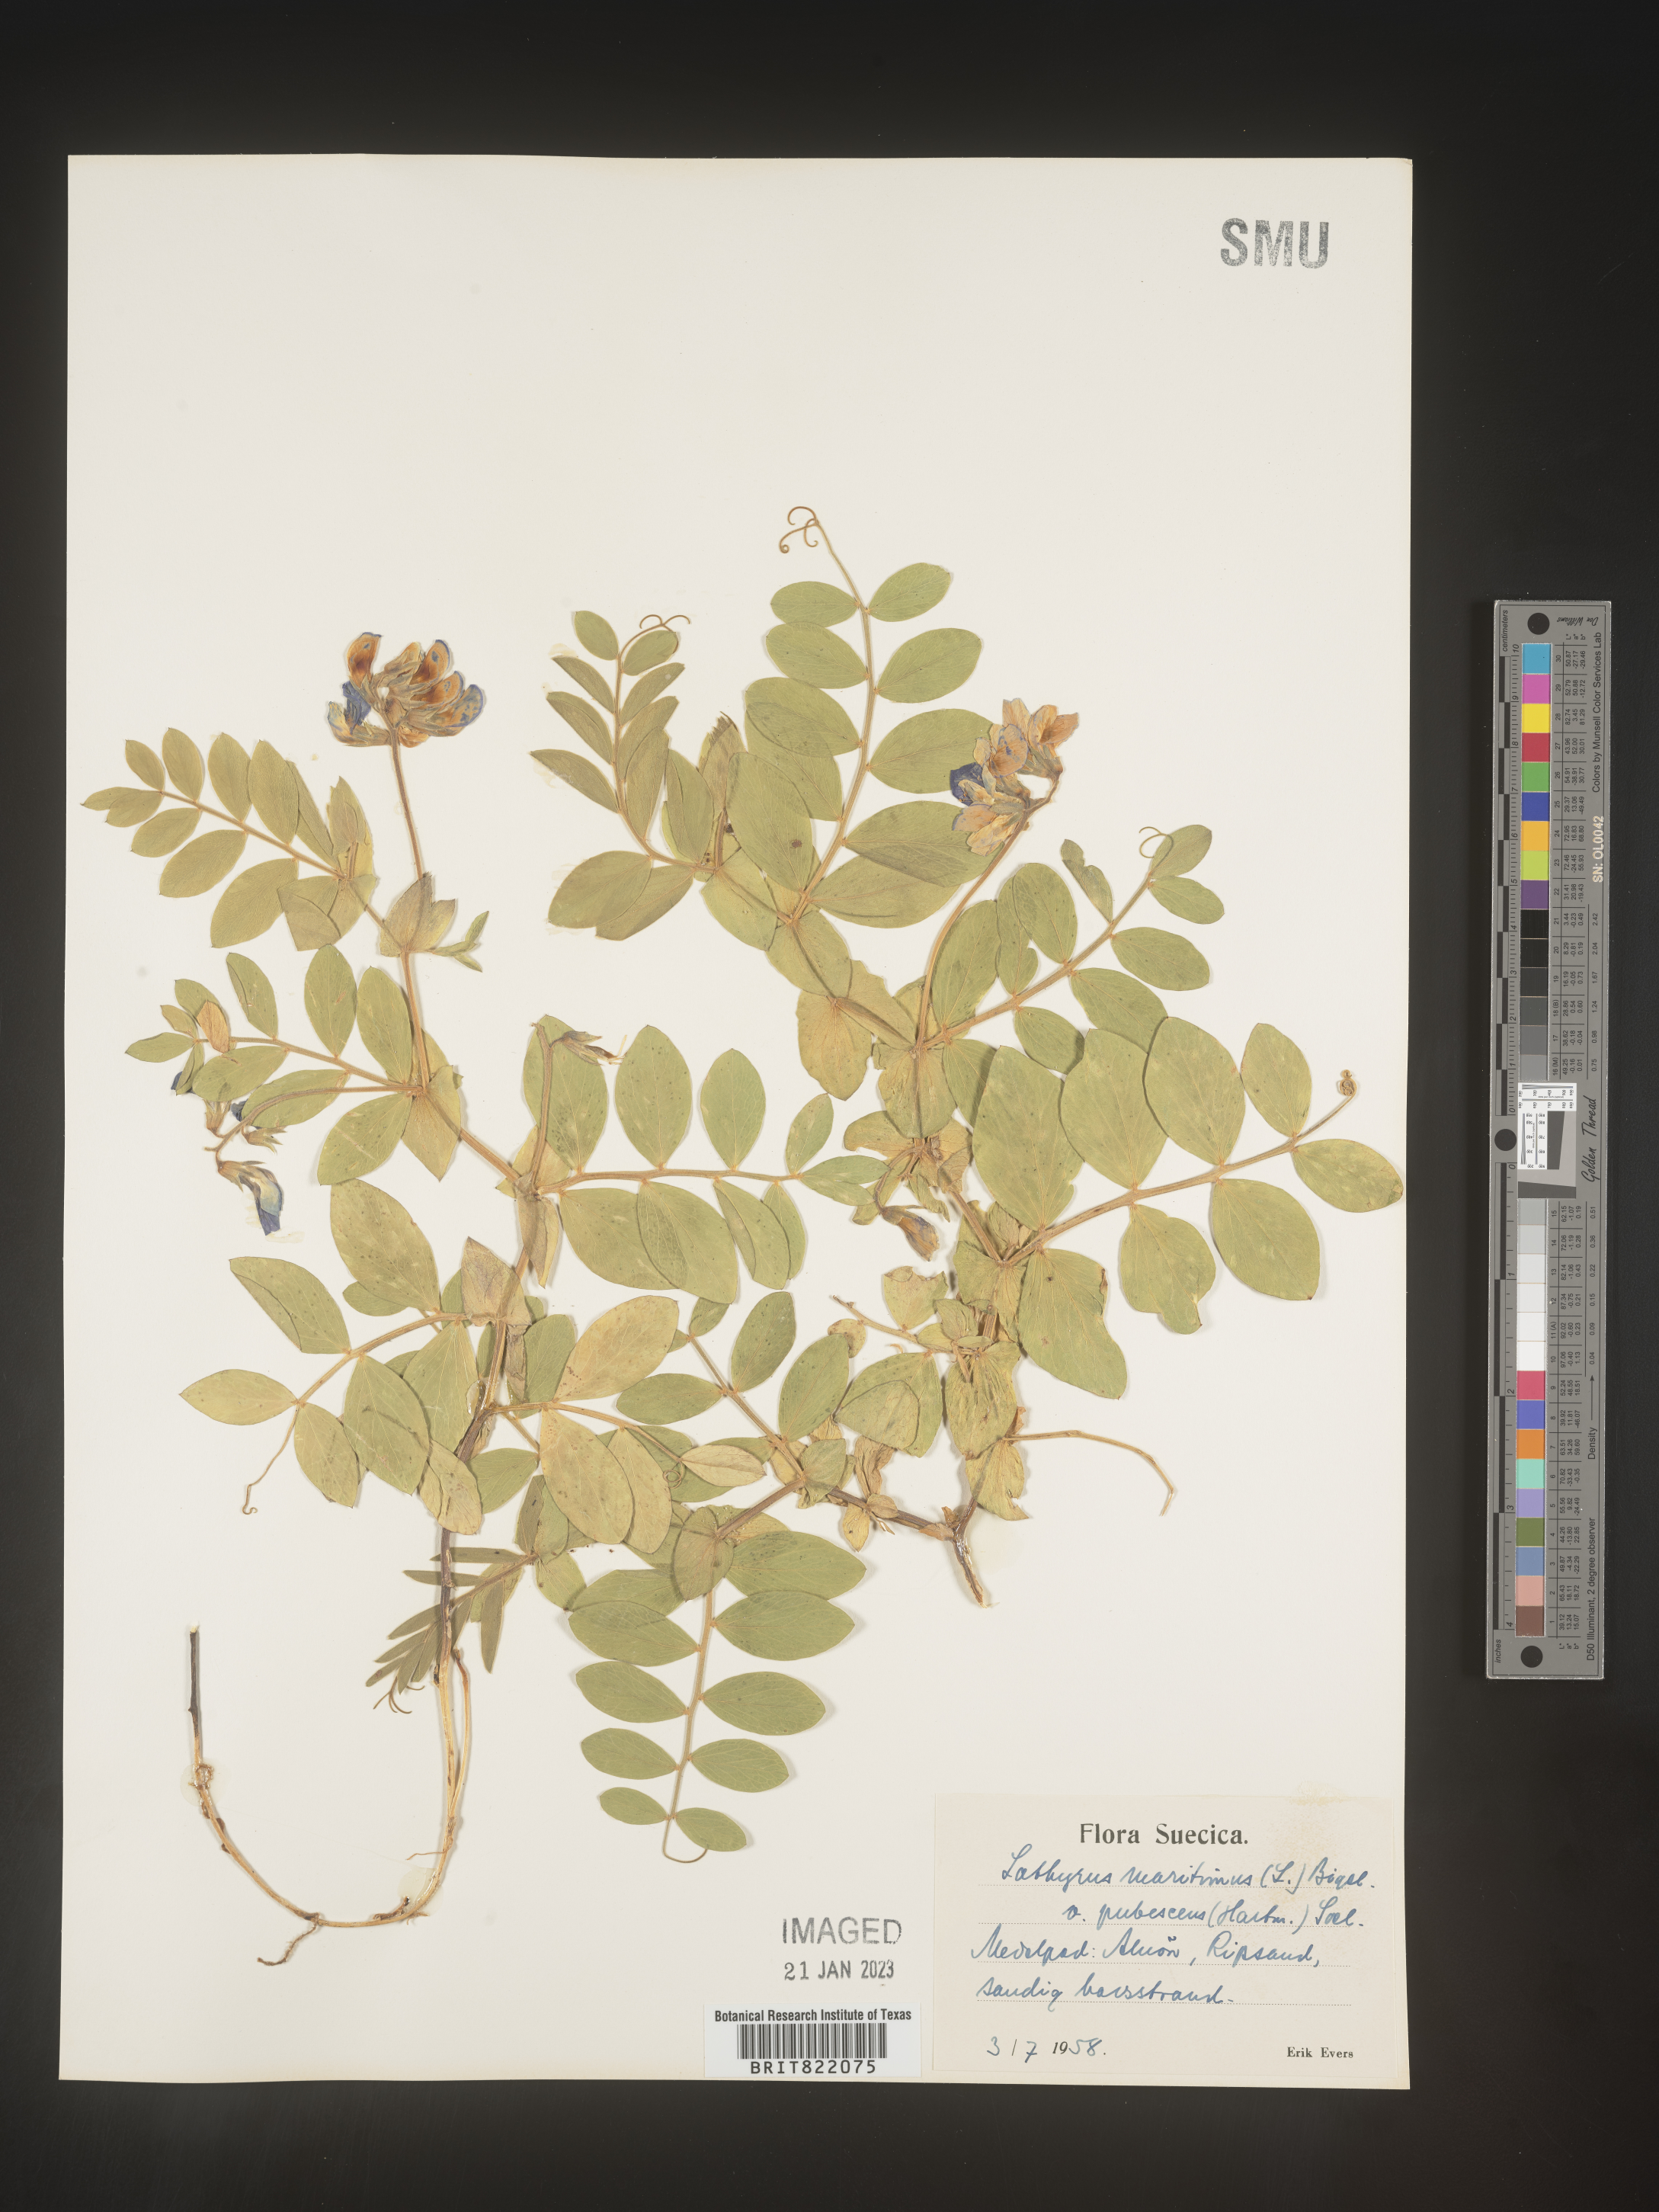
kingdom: Plantae
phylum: Tracheophyta
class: Magnoliopsida
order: Fabales
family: Fabaceae
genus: Lathyrus
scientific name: Lathyrus
